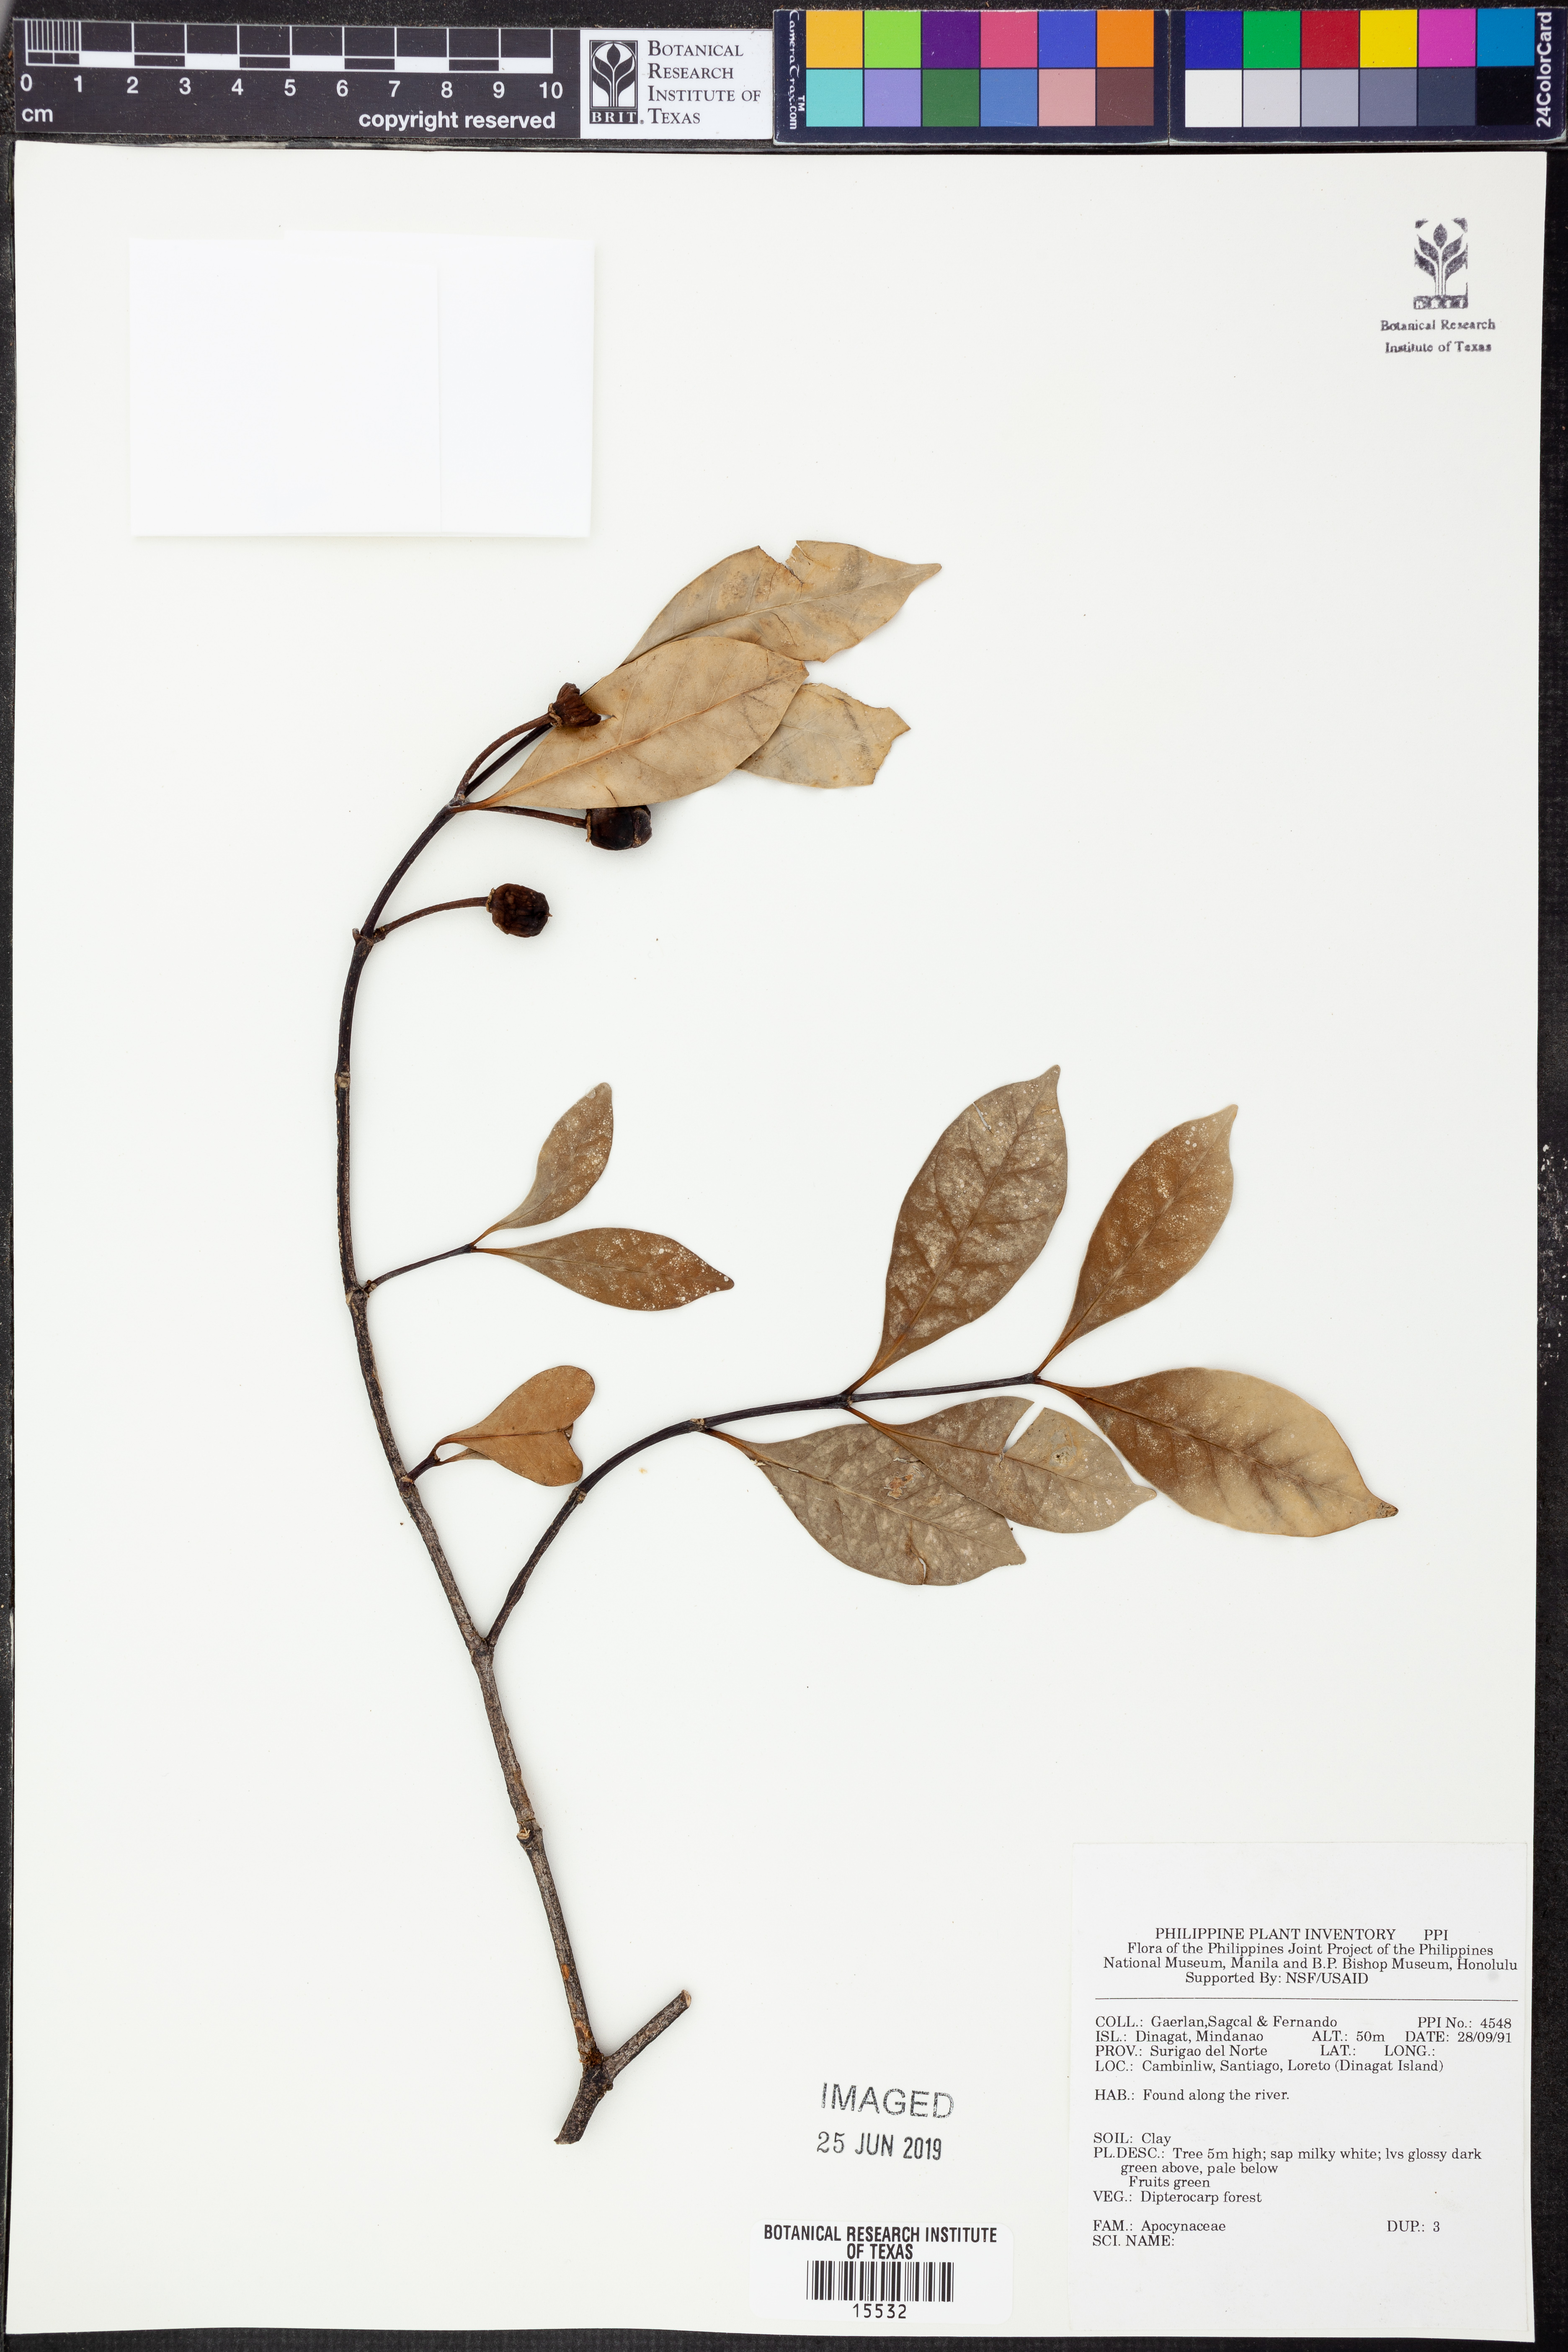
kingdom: Plantae
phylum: Tracheophyta
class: Magnoliopsida
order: Gentianales
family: Apocynaceae
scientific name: Apocynaceae
